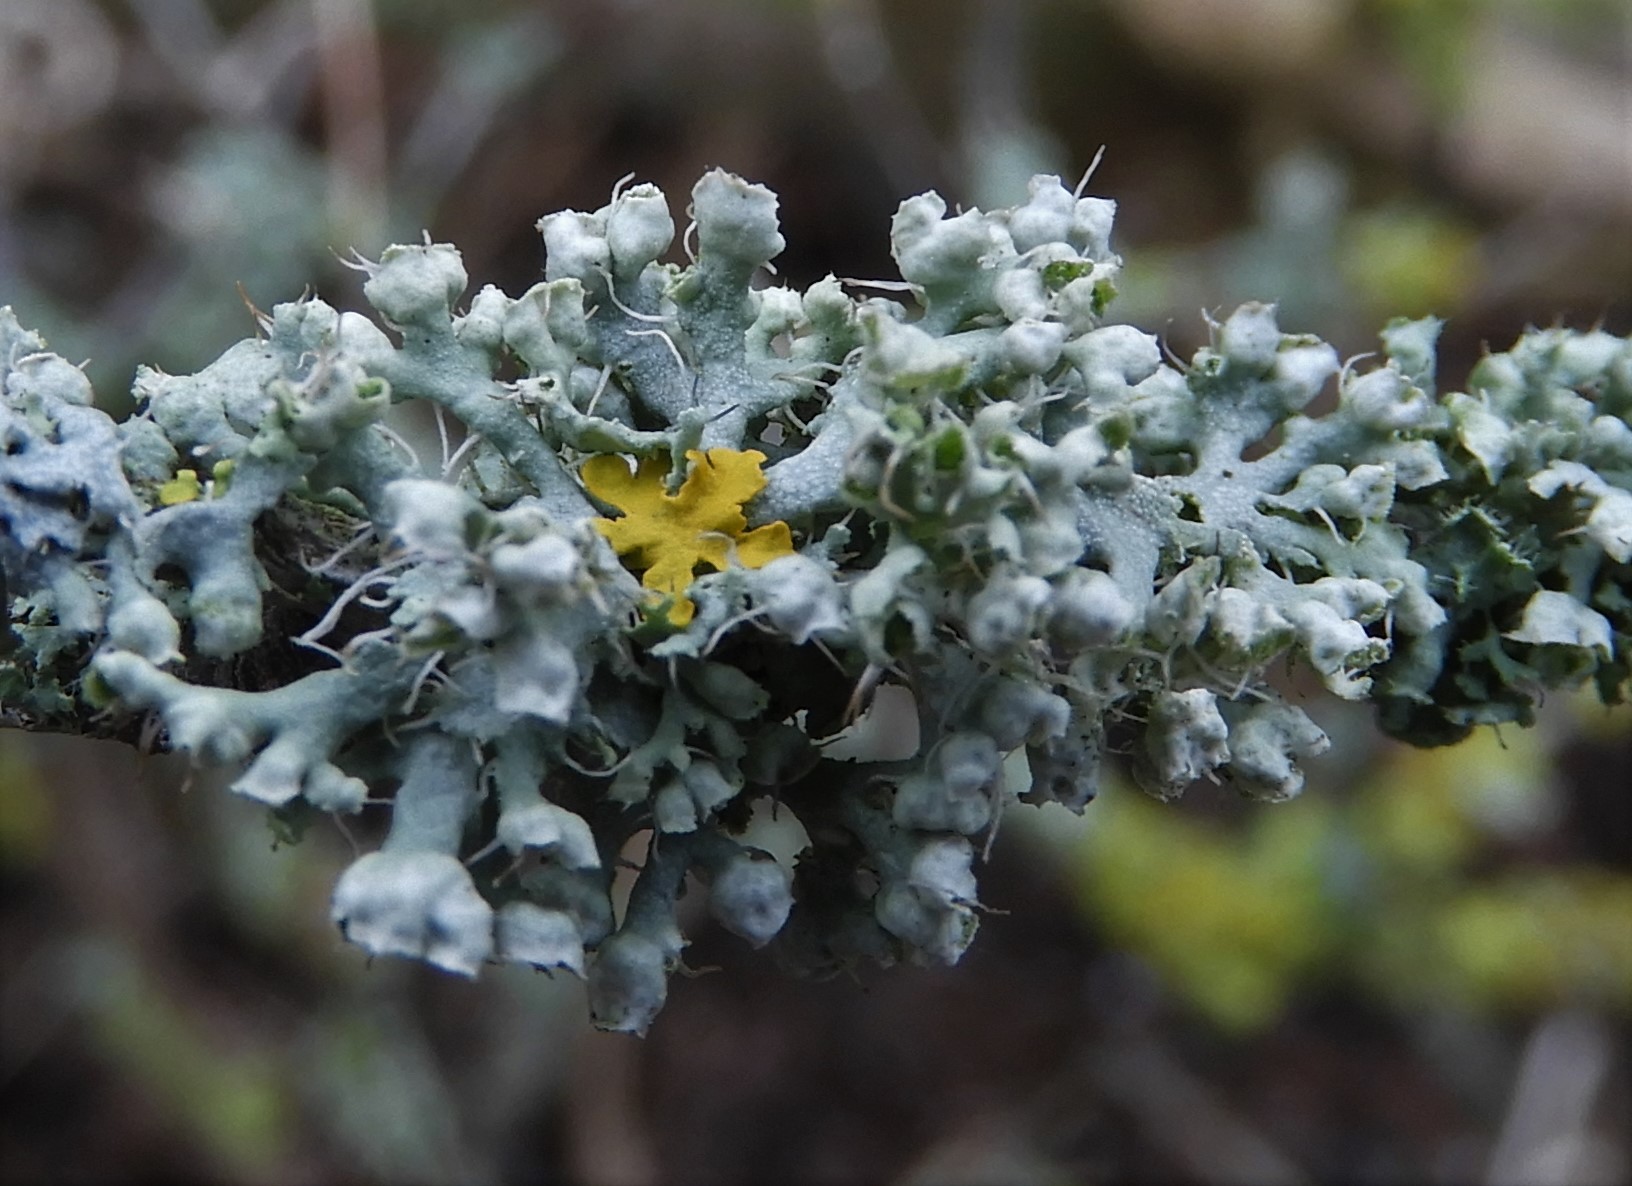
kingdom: Fungi
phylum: Ascomycota
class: Lecanoromycetes
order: Caliciales
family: Physciaceae
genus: Physcia
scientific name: Physcia adscendens
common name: hætte-rosetlav
